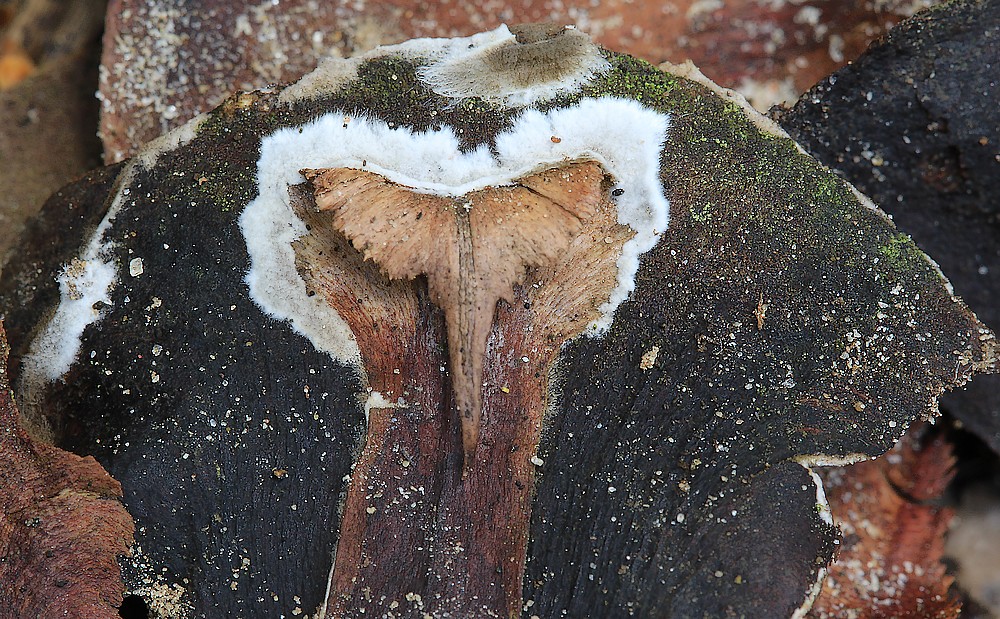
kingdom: Fungi
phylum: Basidiomycota
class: Agaricomycetes
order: Thelephorales
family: Thelephoraceae
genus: Tomentella
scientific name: Tomentella
